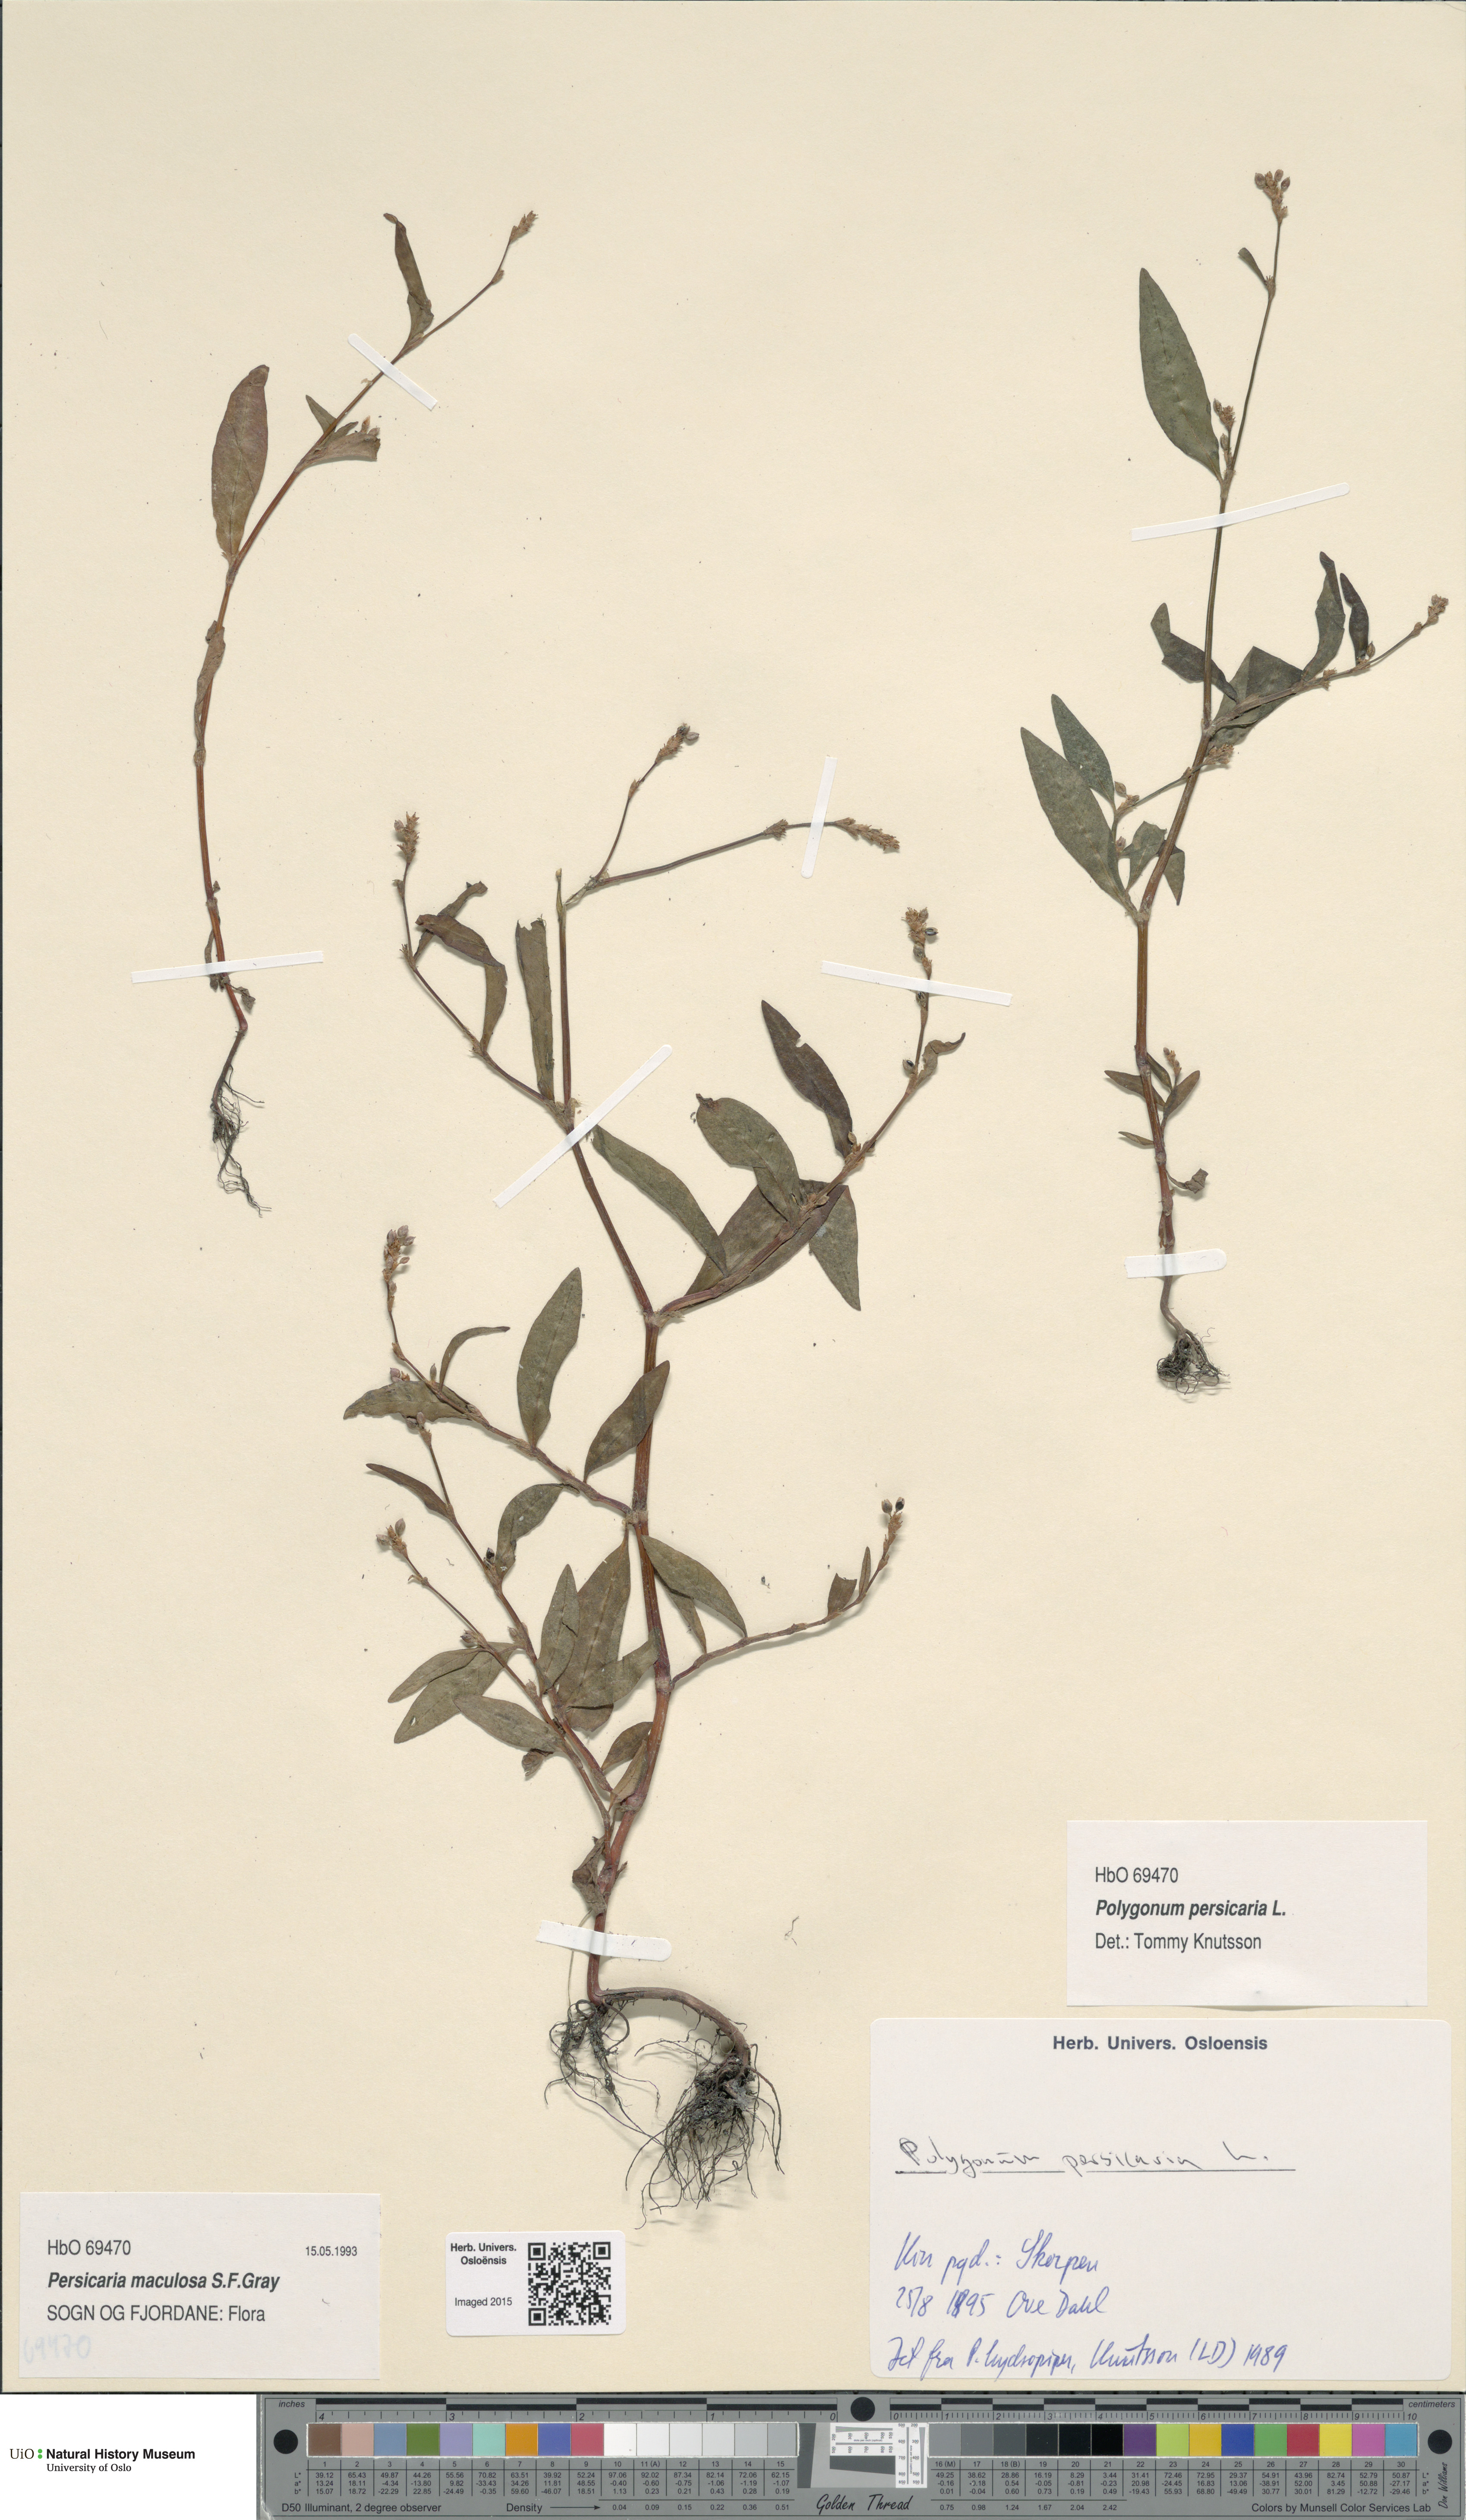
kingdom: Plantae
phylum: Tracheophyta
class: Magnoliopsida
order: Caryophyllales
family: Polygonaceae
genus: Persicaria
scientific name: Persicaria maculosa
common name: Redshank
